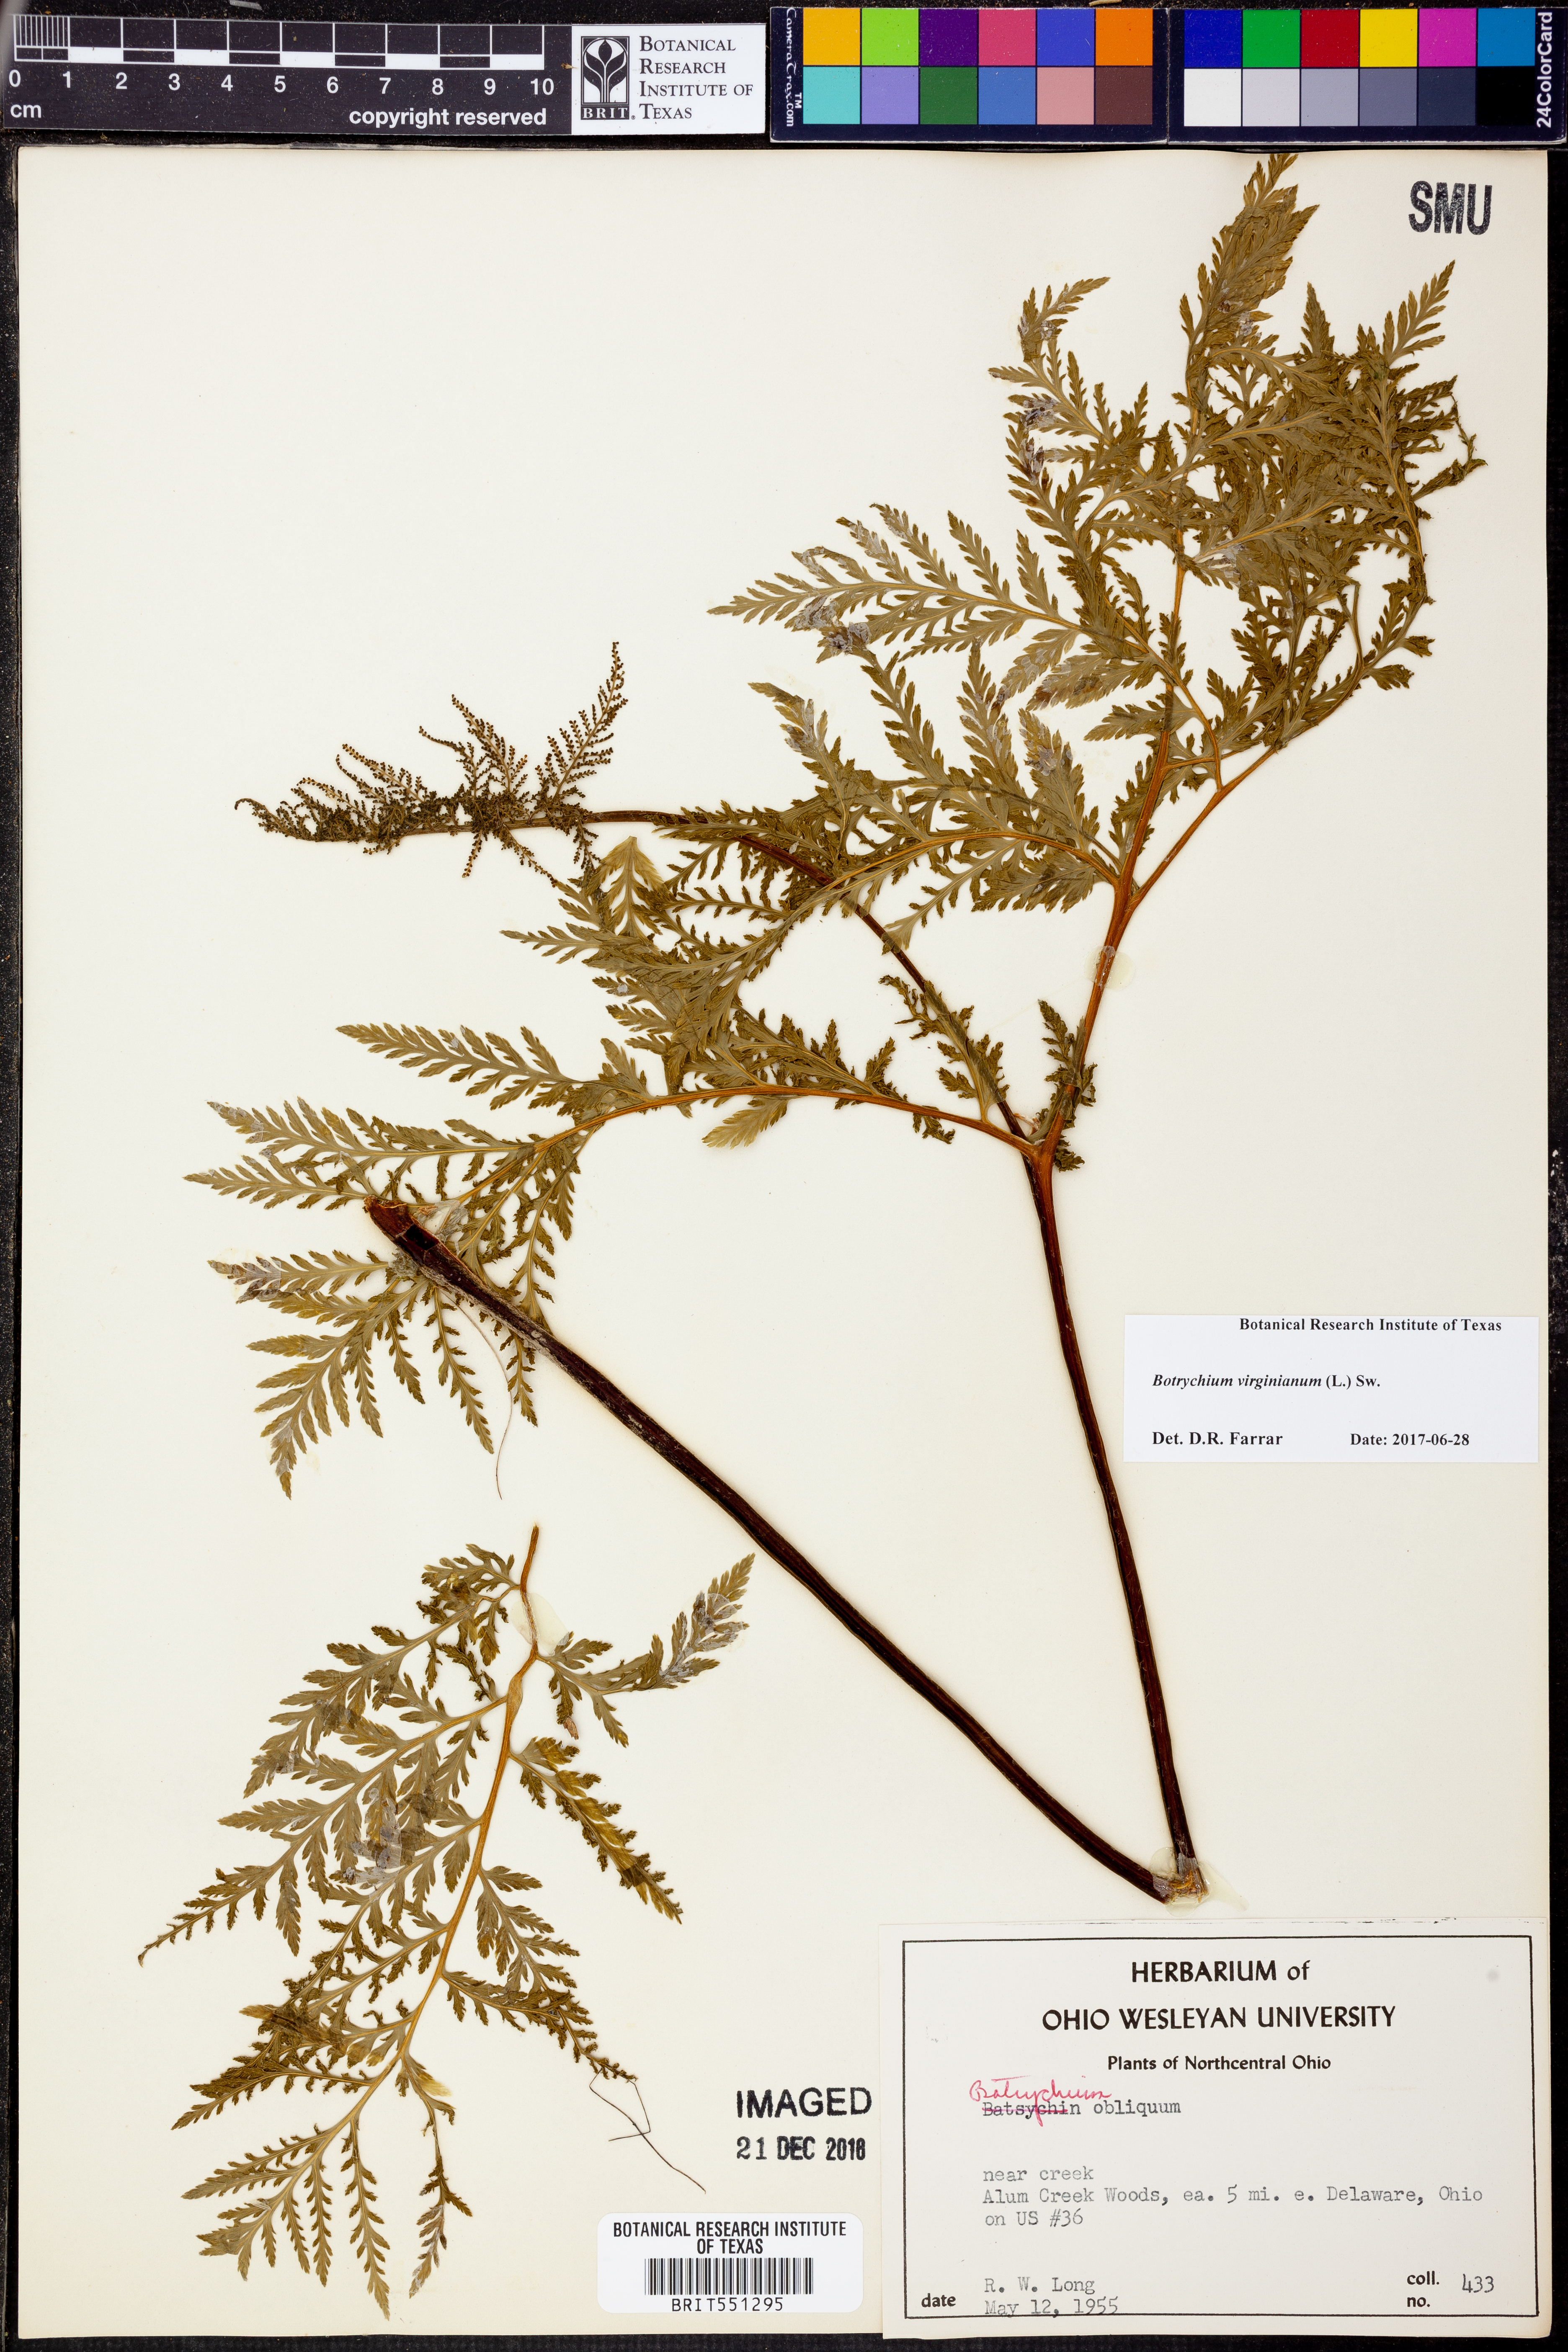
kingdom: Plantae
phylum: Tracheophyta
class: Polypodiopsida
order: Ophioglossales
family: Ophioglossaceae
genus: Botrypus
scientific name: Botrypus virginianus
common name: Common grapefern
